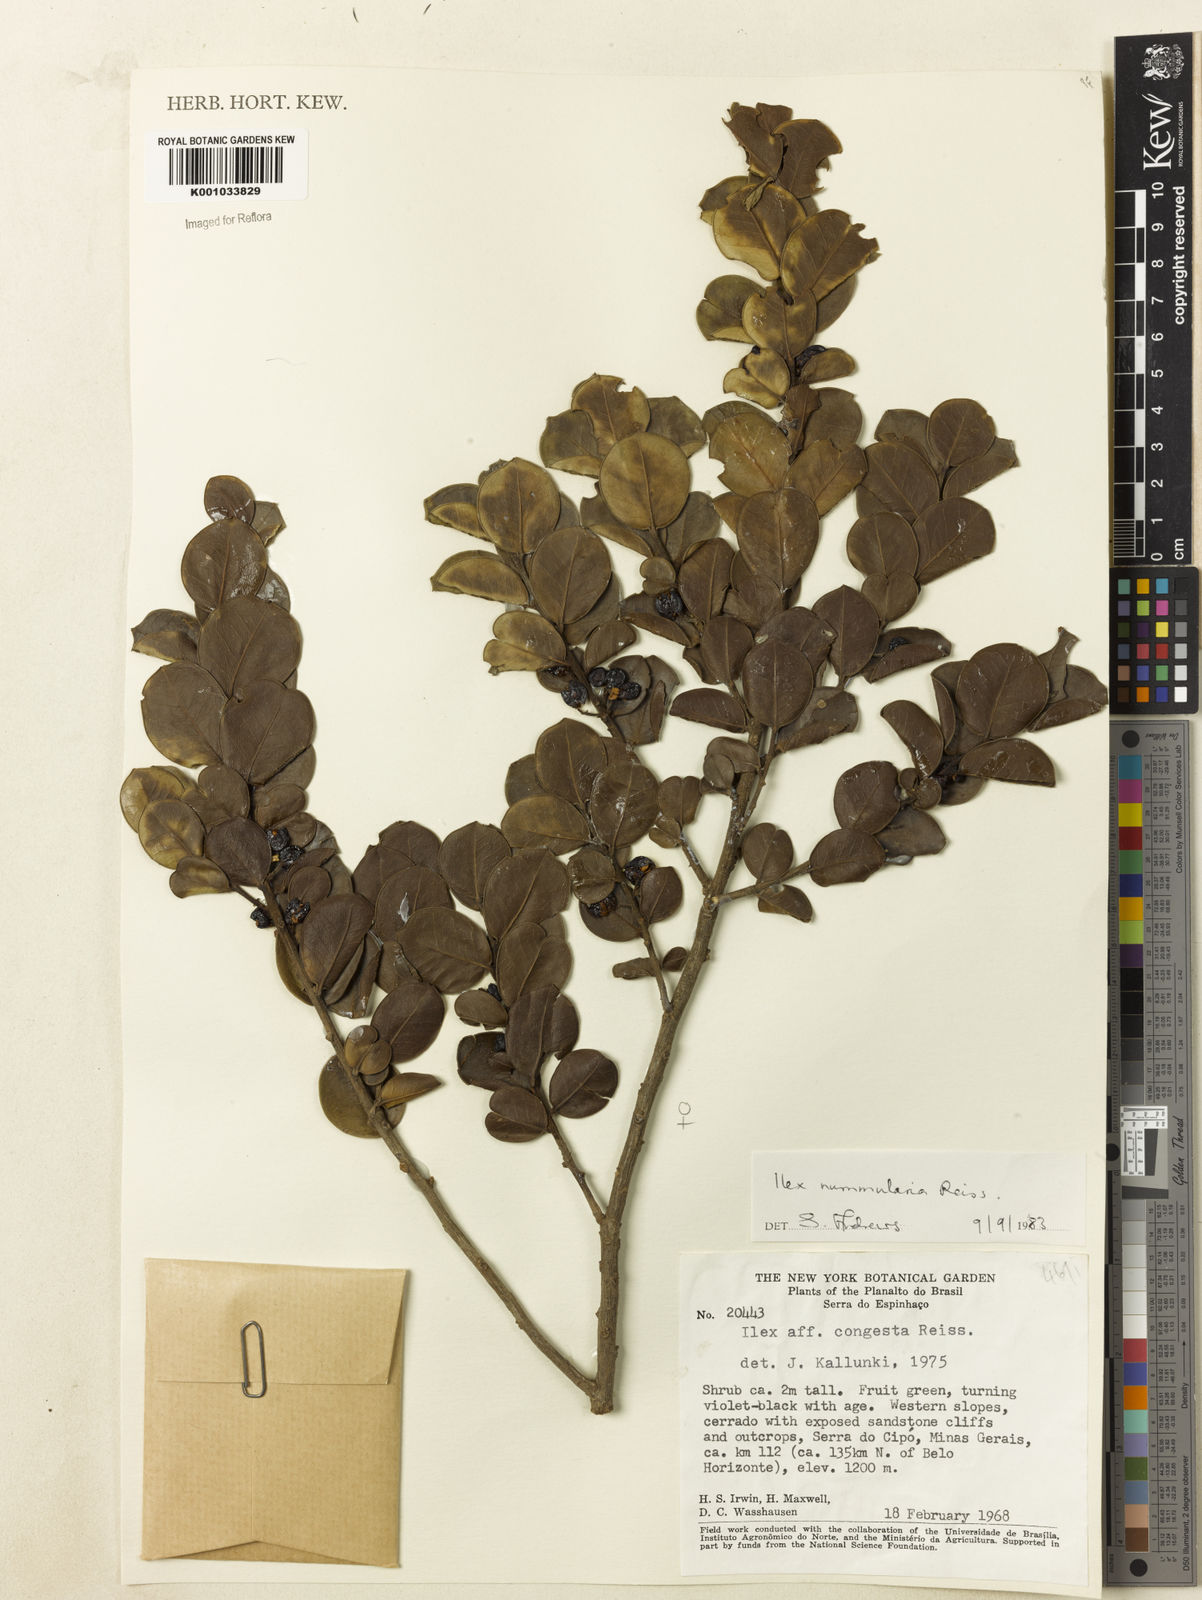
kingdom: Plantae
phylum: Tracheophyta
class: Magnoliopsida
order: Aquifoliales
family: Aquifoliaceae
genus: Ilex
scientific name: Ilex nummularia
